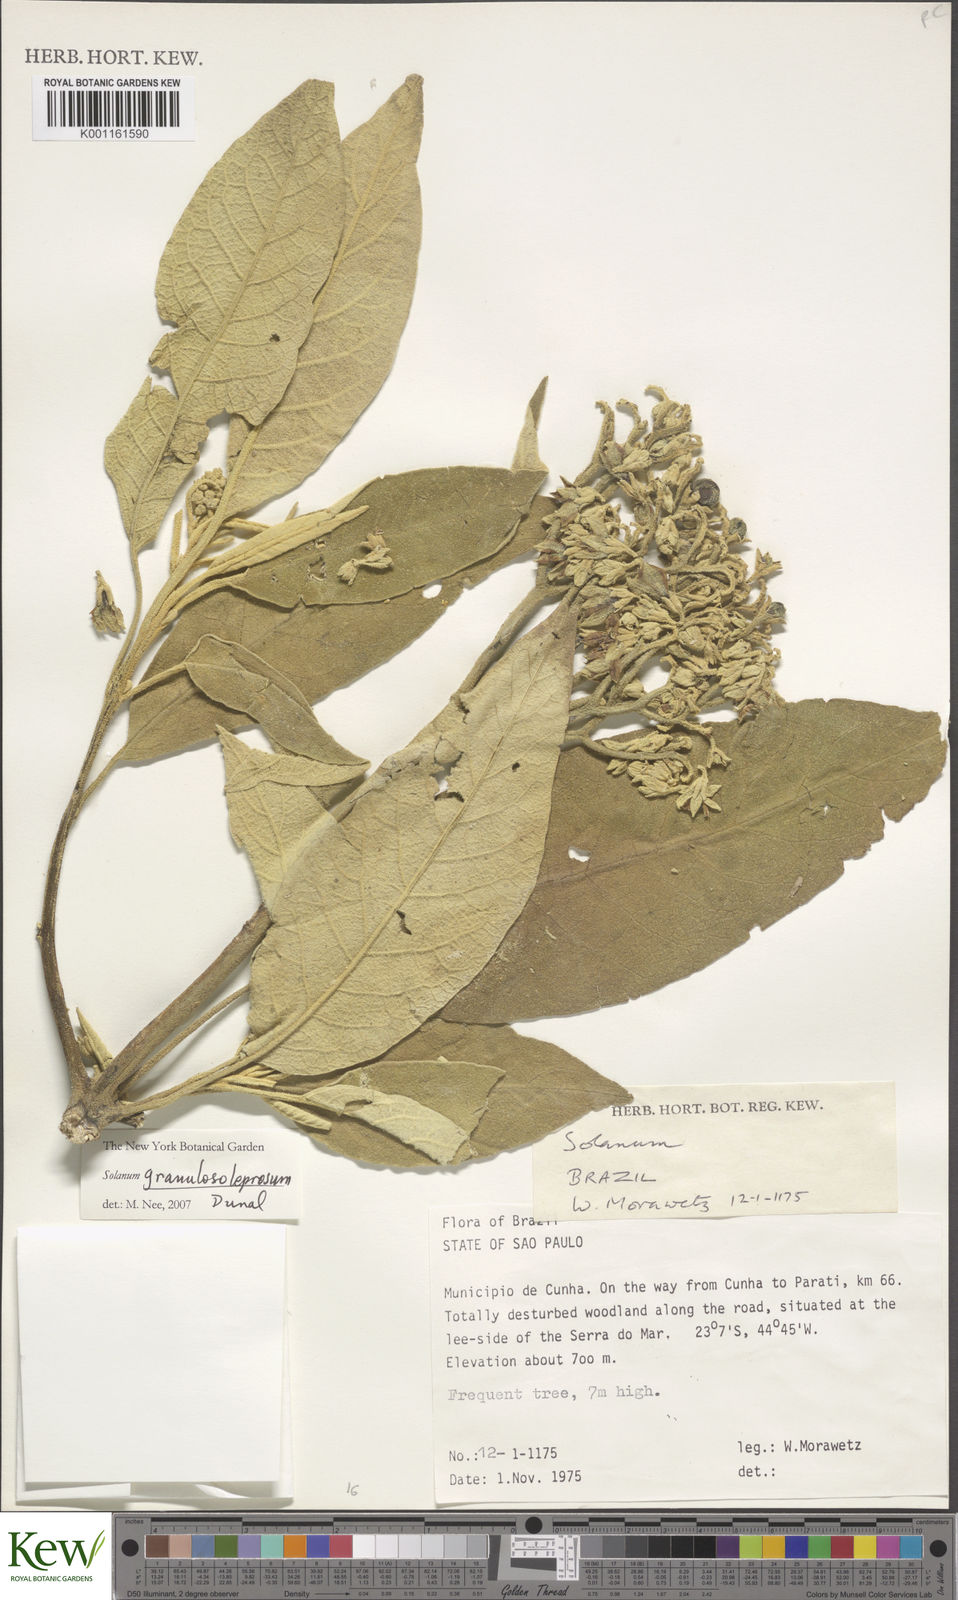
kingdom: Plantae
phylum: Tracheophyta
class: Magnoliopsida
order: Solanales
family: Solanaceae
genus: Solanum
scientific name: Solanum granulosoleprosum
